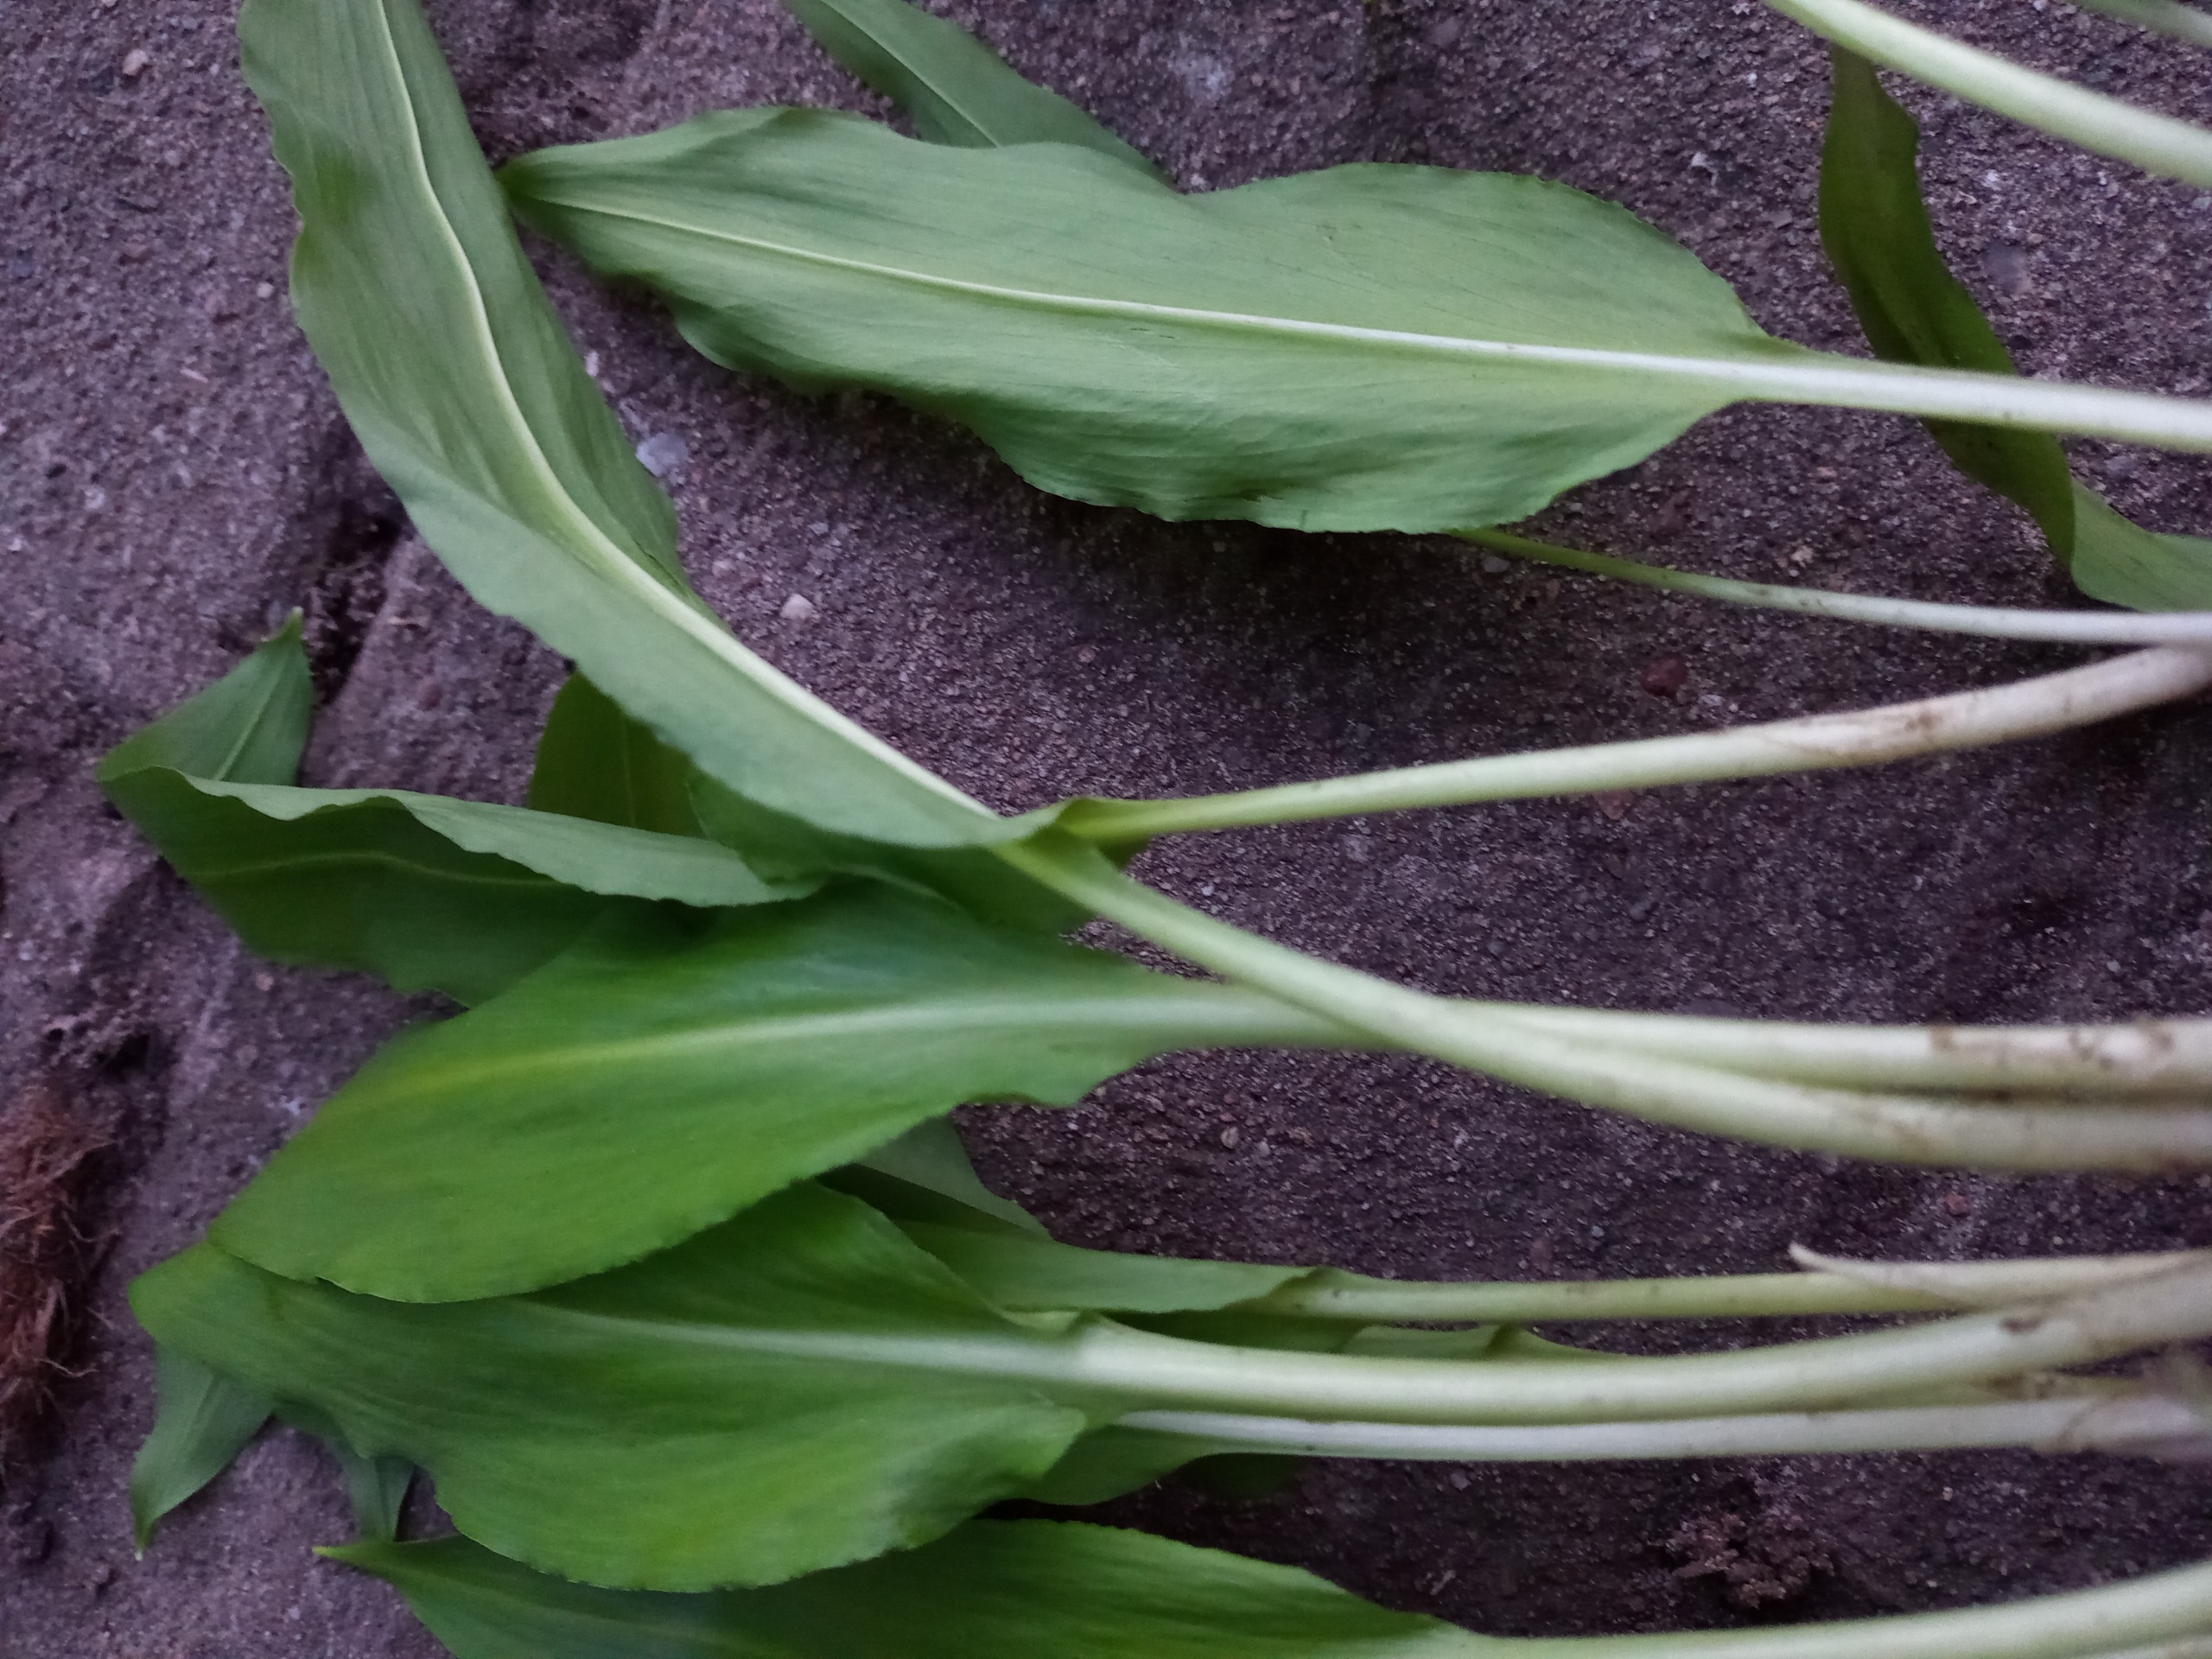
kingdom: Plantae
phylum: Tracheophyta
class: Liliopsida
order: Asparagales
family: Amaryllidaceae
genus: Allium
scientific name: Allium ursinum
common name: Rams-løg
